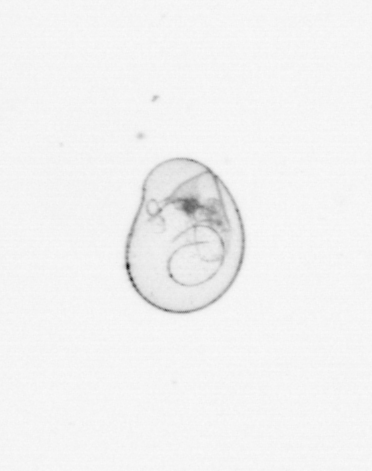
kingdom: Chromista
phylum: Myzozoa
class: Dinophyceae
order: Noctilucales
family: Noctilucaceae
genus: Noctiluca
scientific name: Noctiluca scintillans
